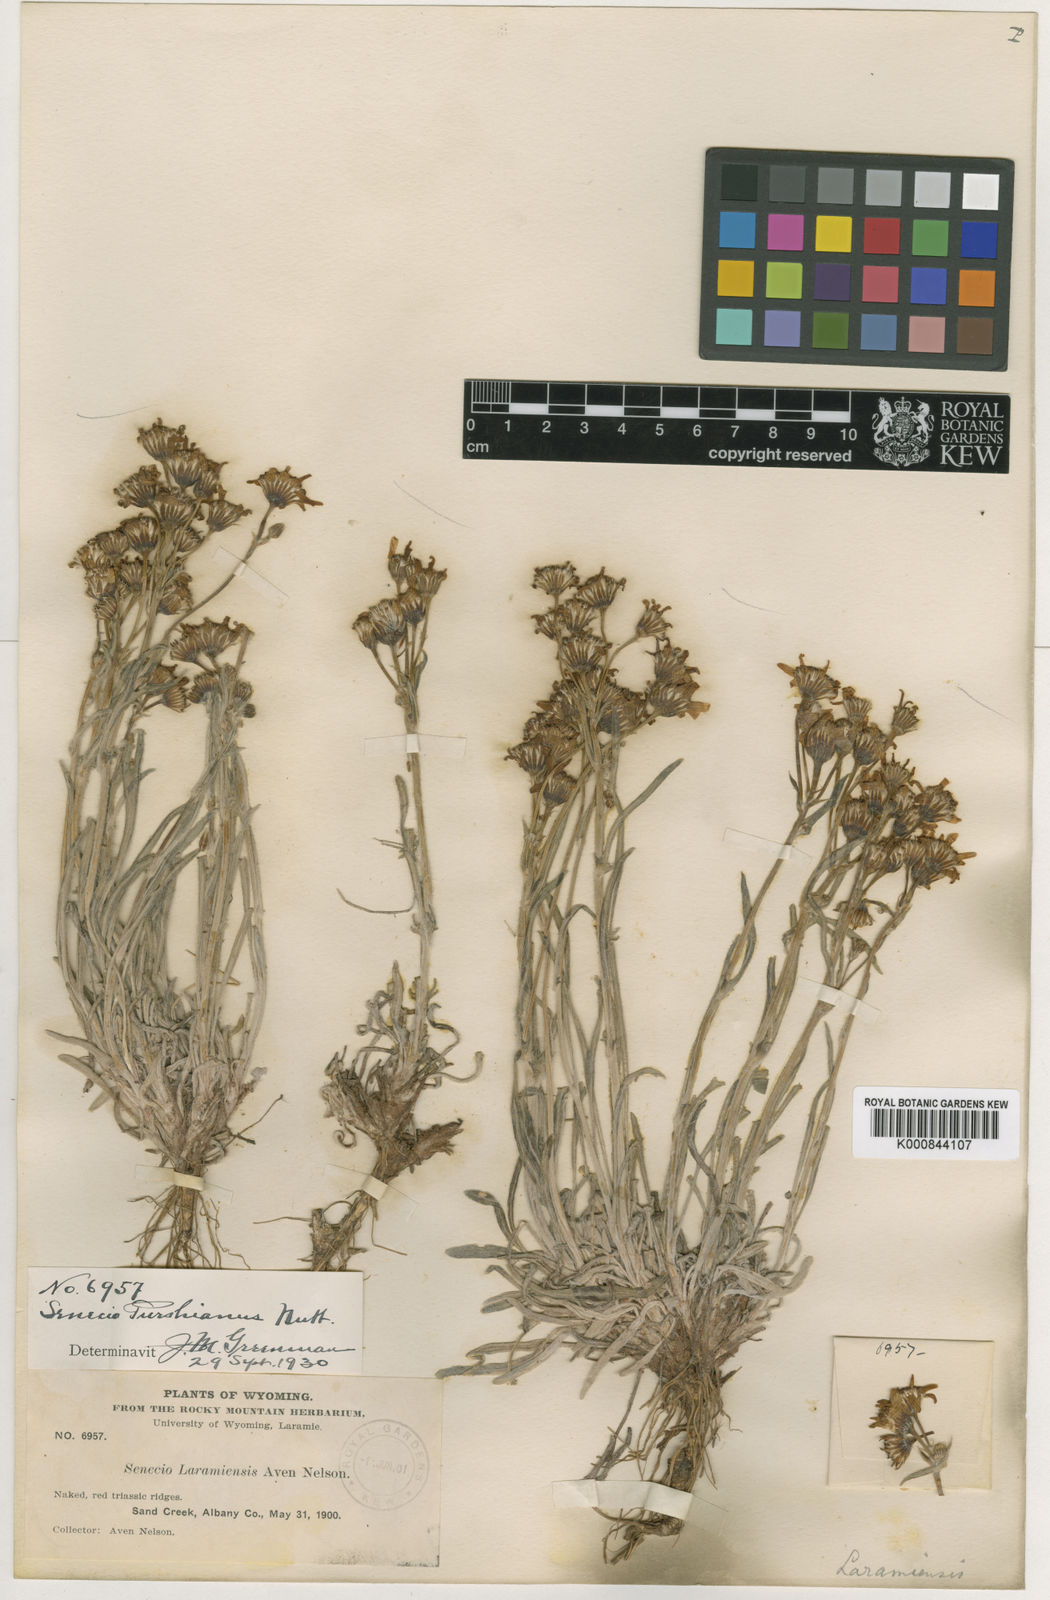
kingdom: Plantae
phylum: Tracheophyta
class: Magnoliopsida
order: Asterales
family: Asteraceae
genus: Packera
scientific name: Packera
